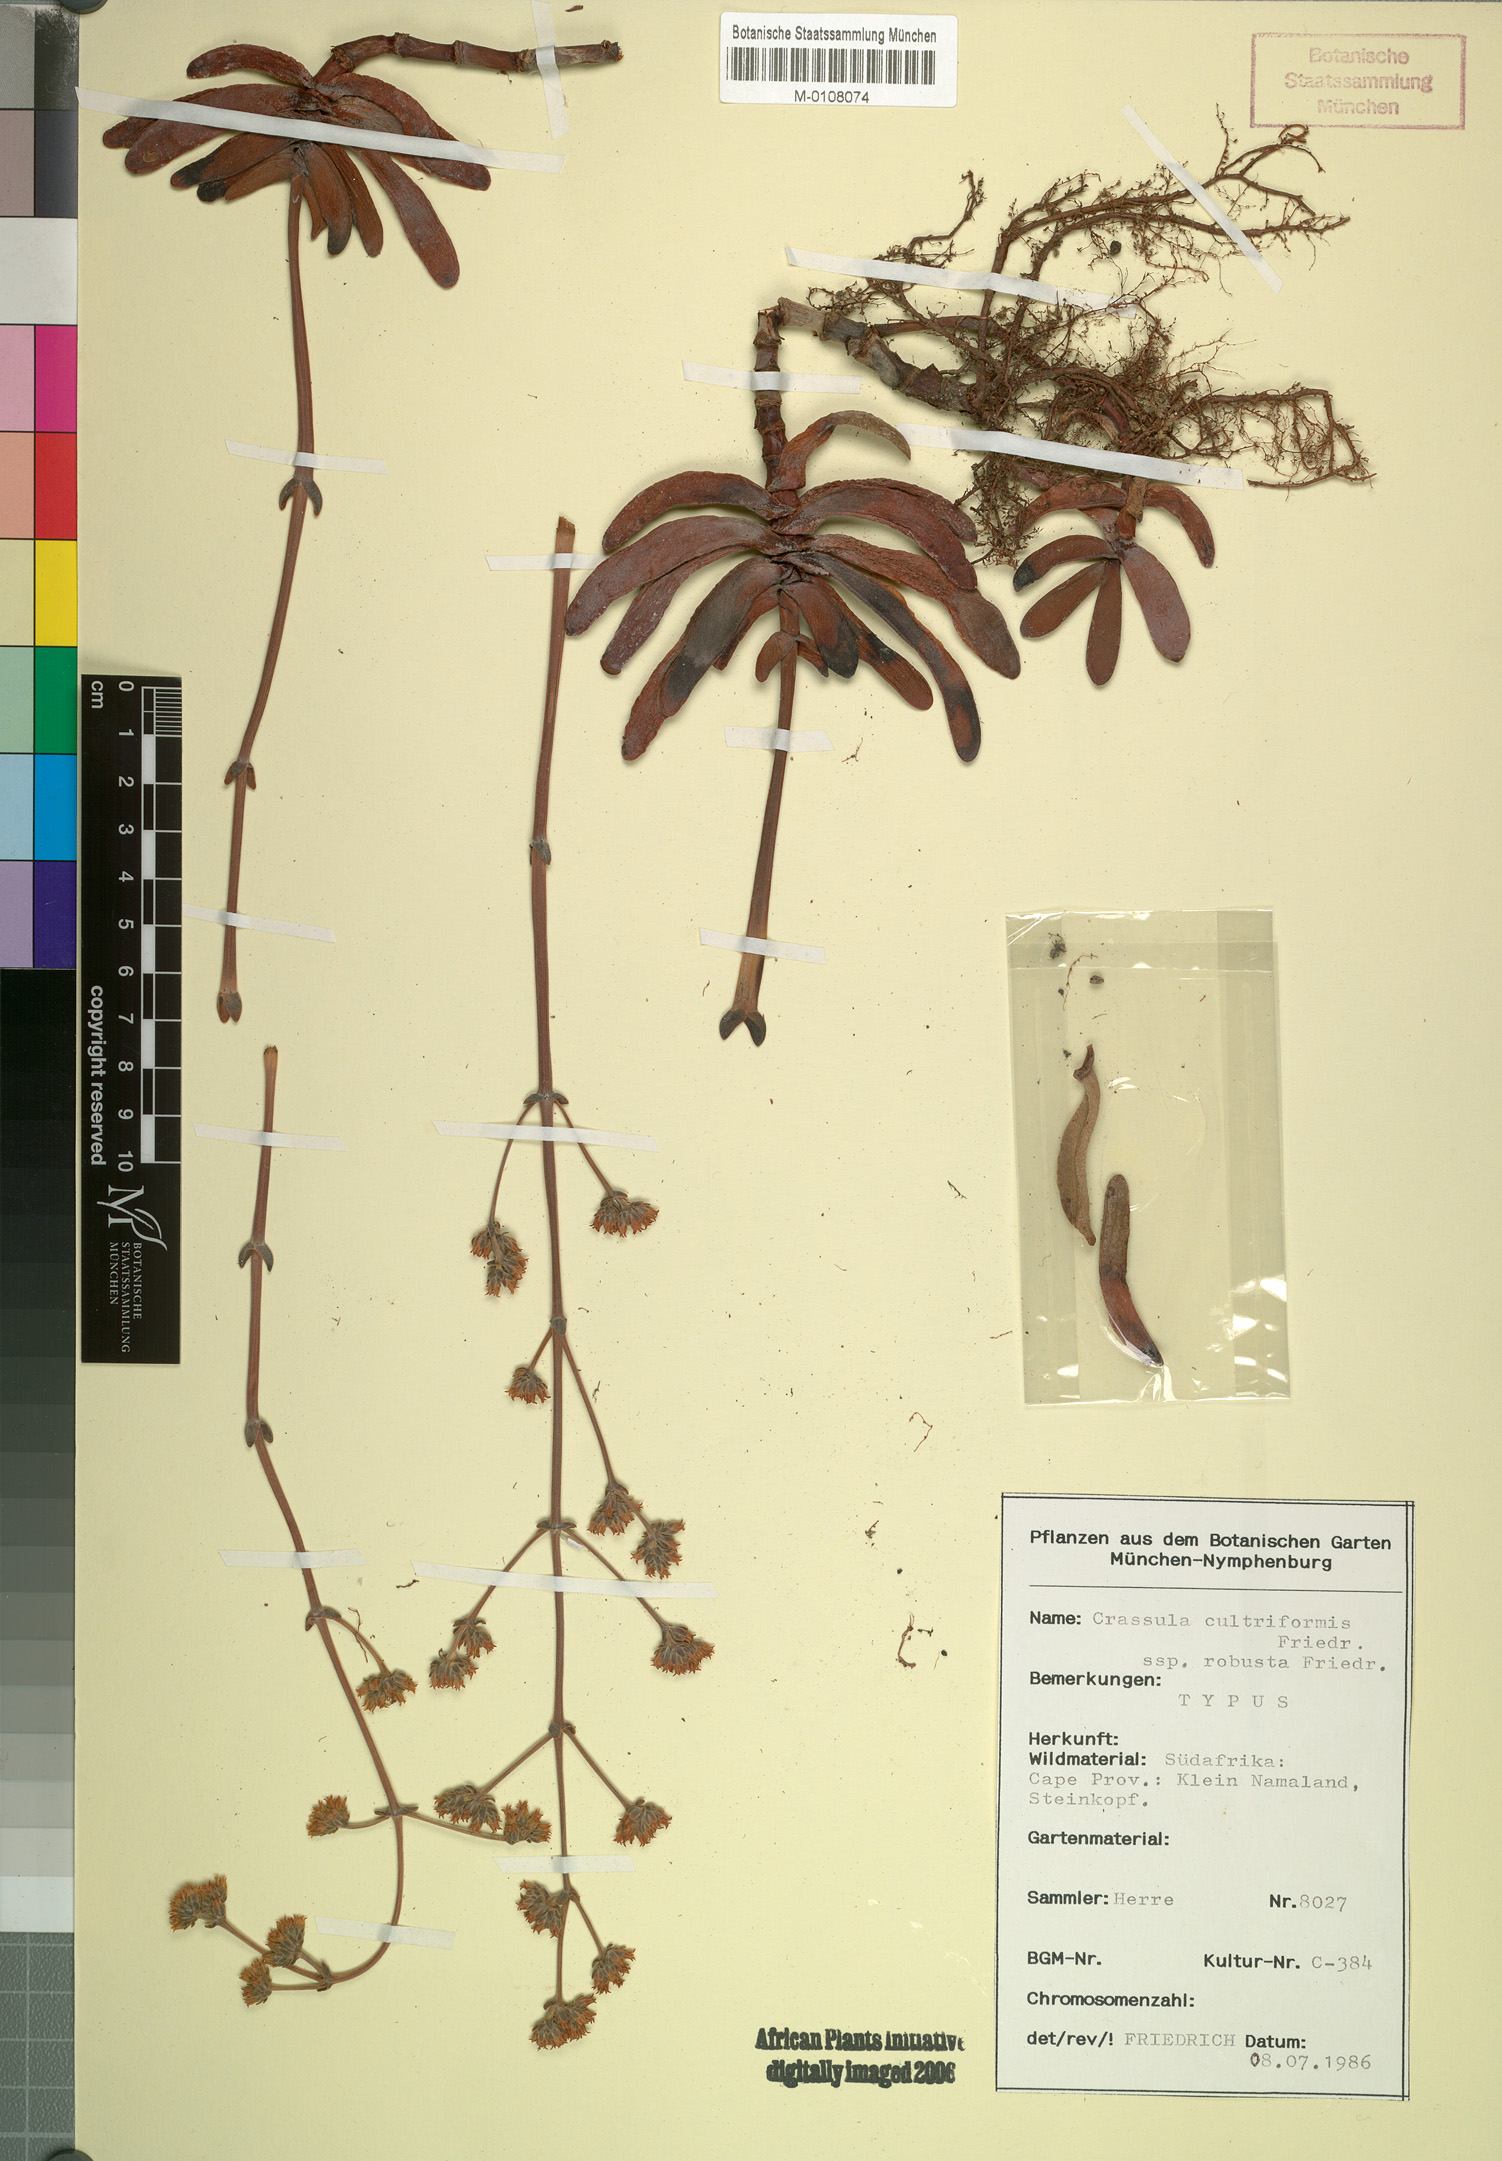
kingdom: Plantae
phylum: Tracheophyta
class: Magnoliopsida
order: Saxifragales
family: Crassulaceae
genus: Crassula
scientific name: Crassula atropurpurea
